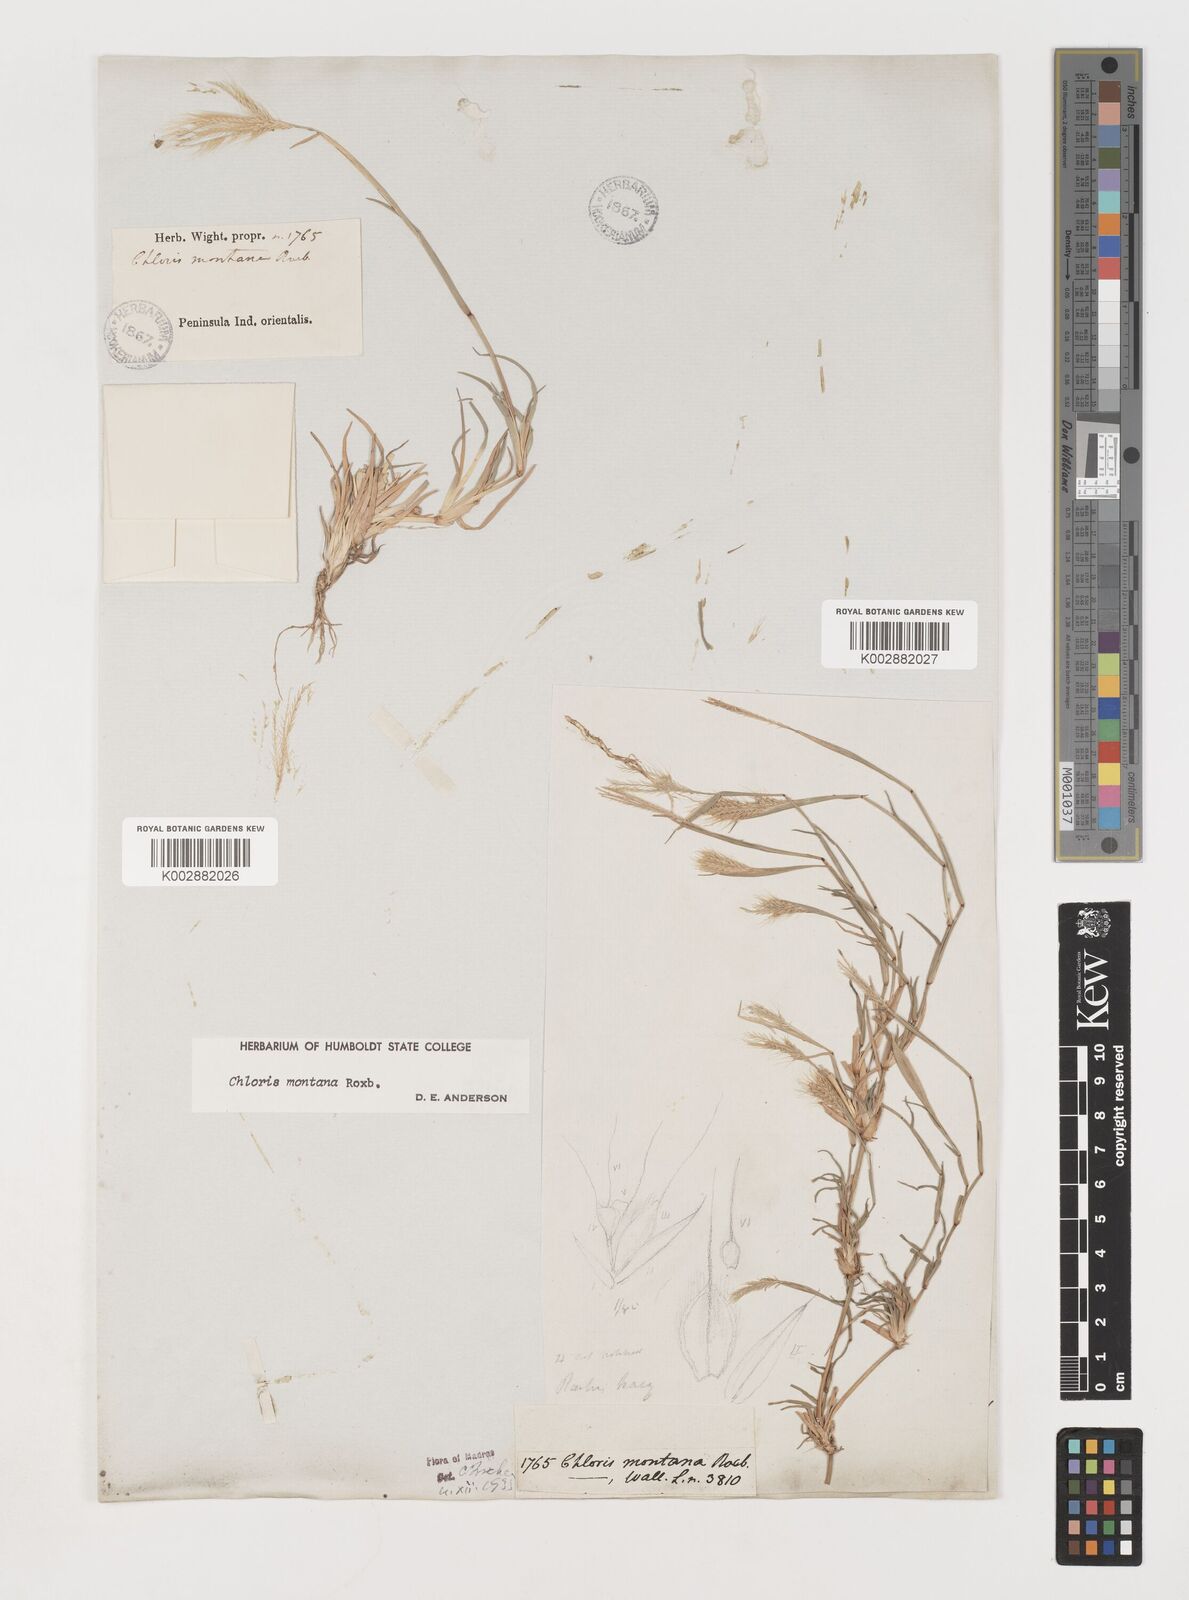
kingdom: Plantae
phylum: Tracheophyta
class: Liliopsida
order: Poales
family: Poaceae
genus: Chloris
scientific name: Chloris montana
